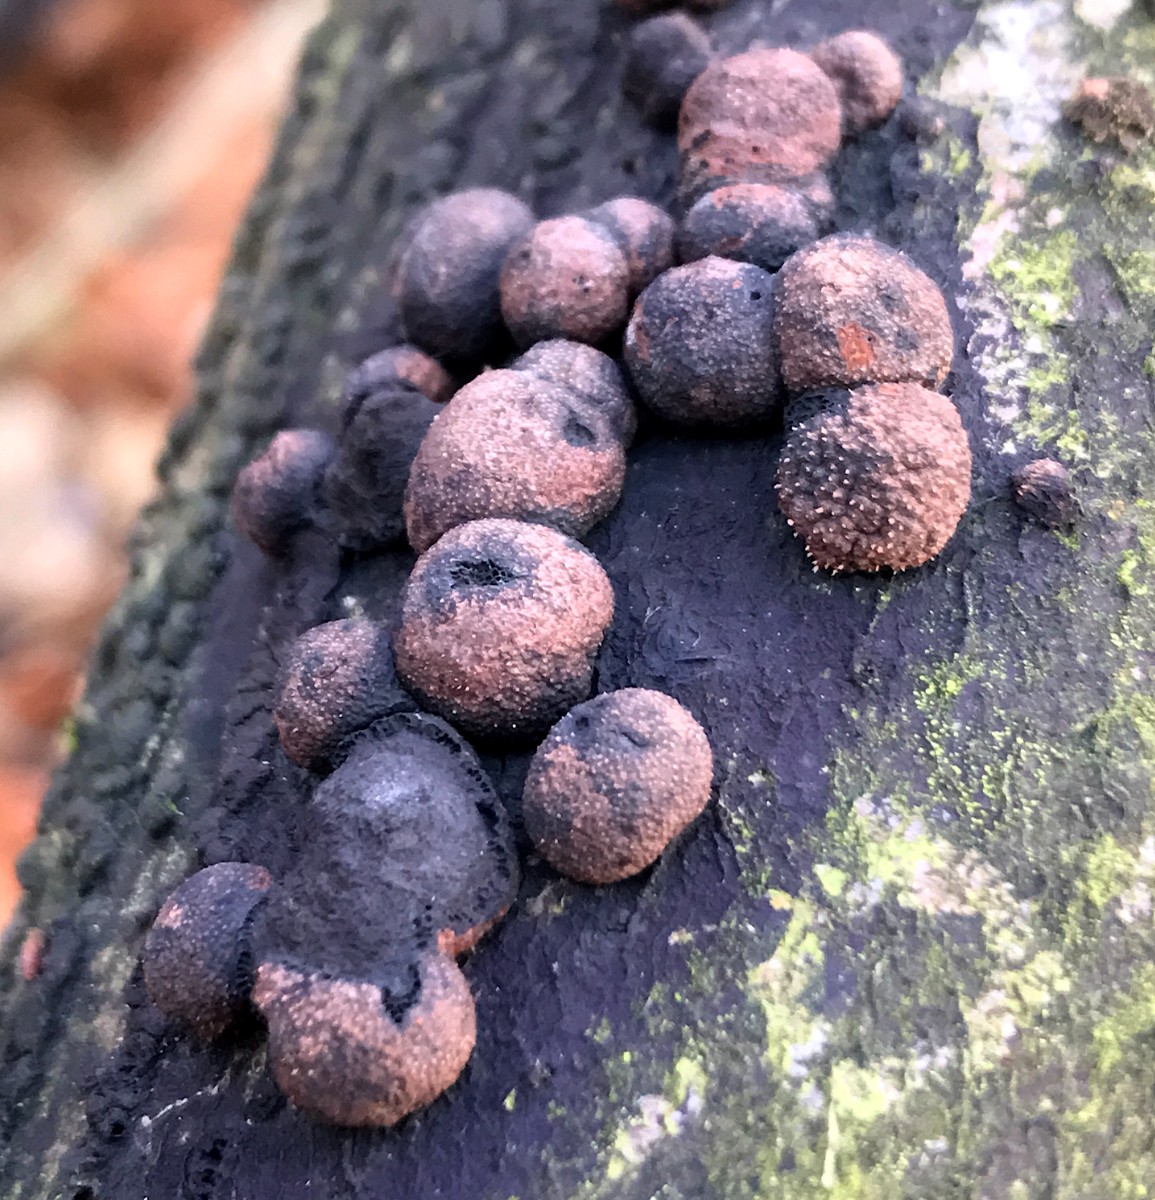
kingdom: Fungi
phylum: Ascomycota
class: Sordariomycetes
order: Xylariales
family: Hypoxylaceae
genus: Hypoxylon
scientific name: Hypoxylon fragiforme
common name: kuljordbær
